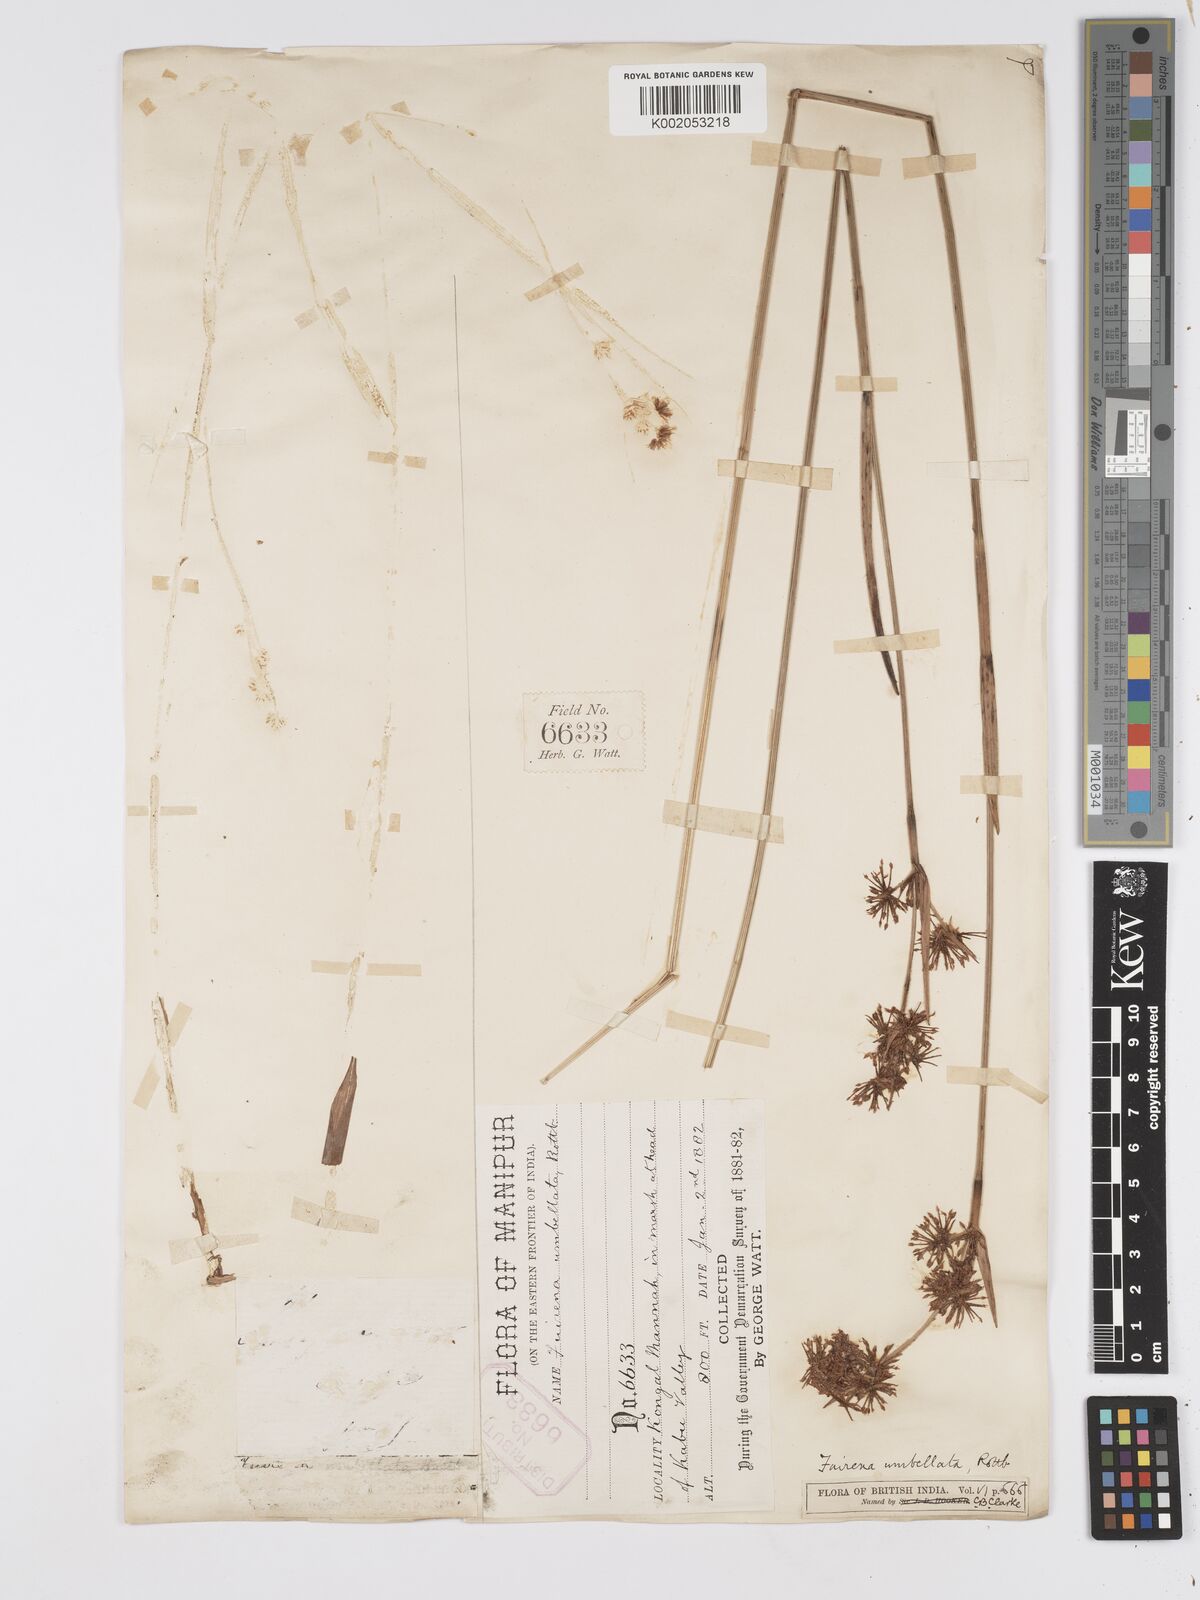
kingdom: Plantae
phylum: Tracheophyta
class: Liliopsida
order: Poales
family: Cyperaceae
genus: Fuirena
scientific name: Fuirena umbellata
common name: Yefen
